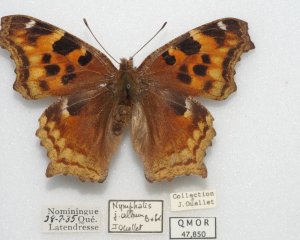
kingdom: Animalia
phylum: Arthropoda
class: Insecta
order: Lepidoptera
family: Nymphalidae
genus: Polygonia
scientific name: Polygonia vaualbum
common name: Compton Tortoiseshell
